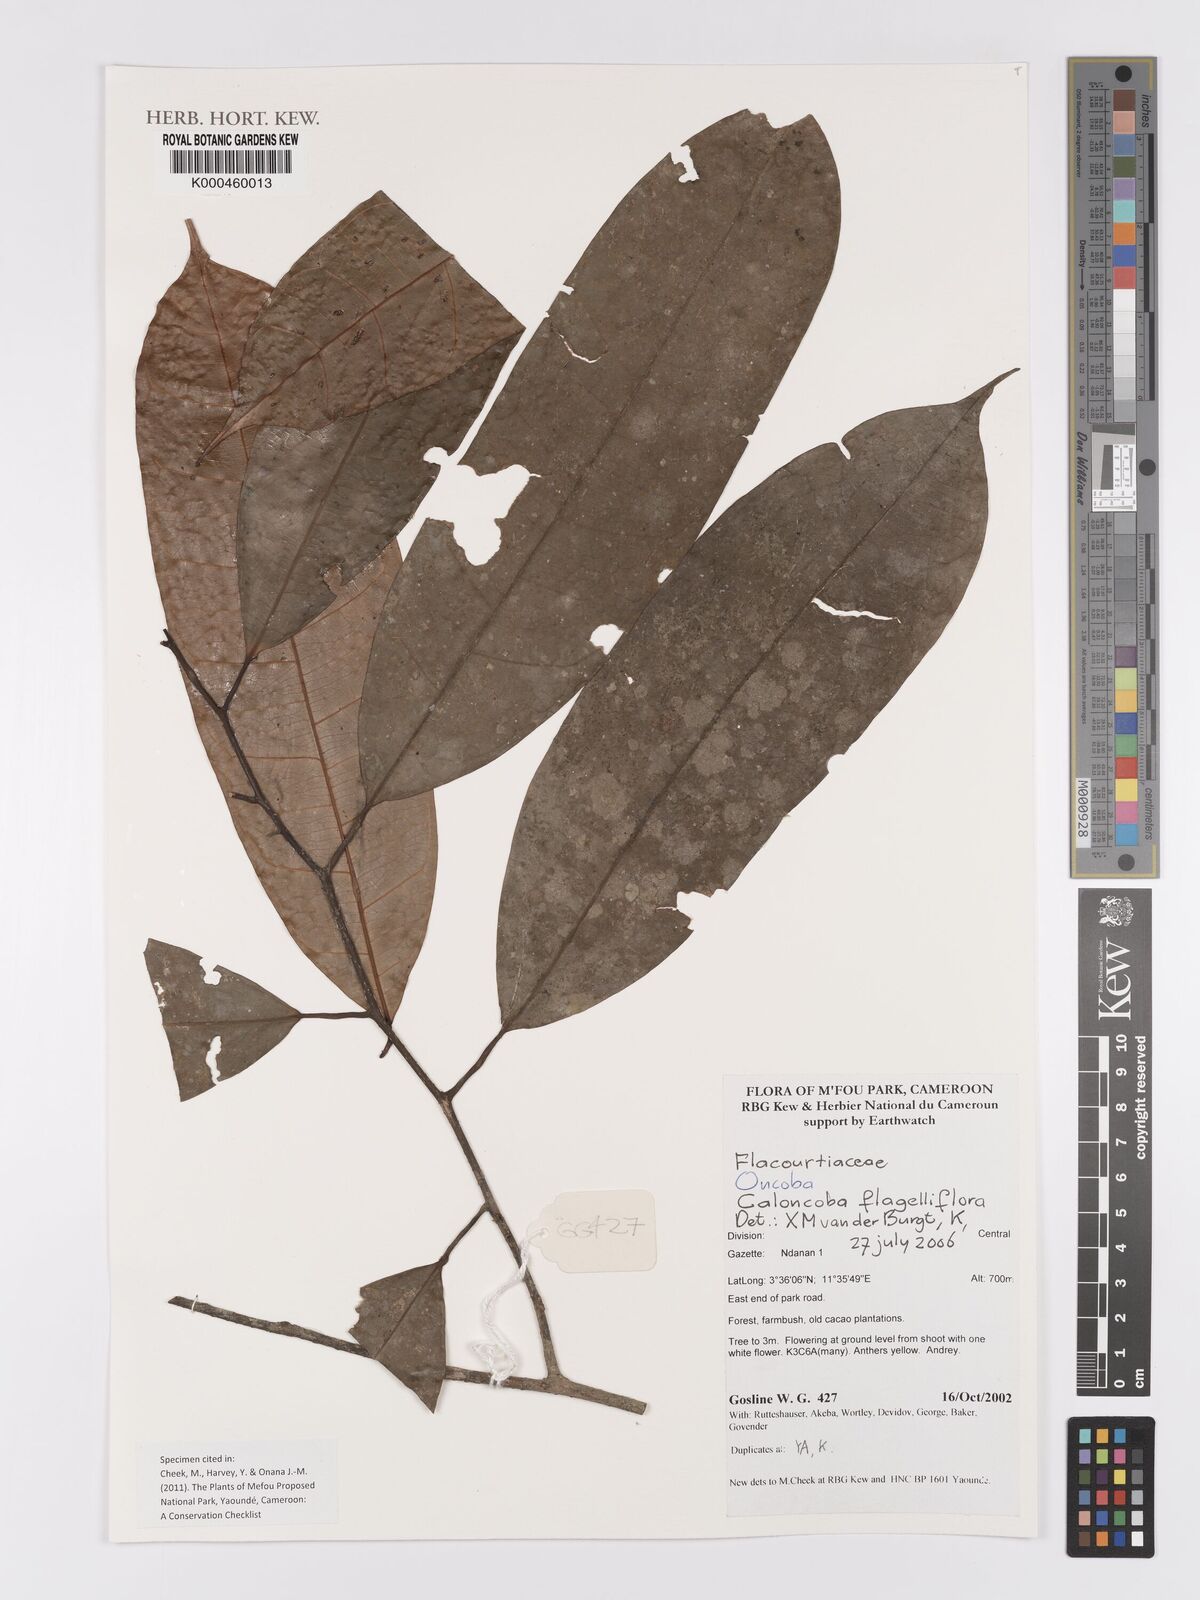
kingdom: Plantae
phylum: Tracheophyta
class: Magnoliopsida
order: Malpighiales
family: Achariaceae
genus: Caloncoba
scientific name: Caloncoba flagelliflora
